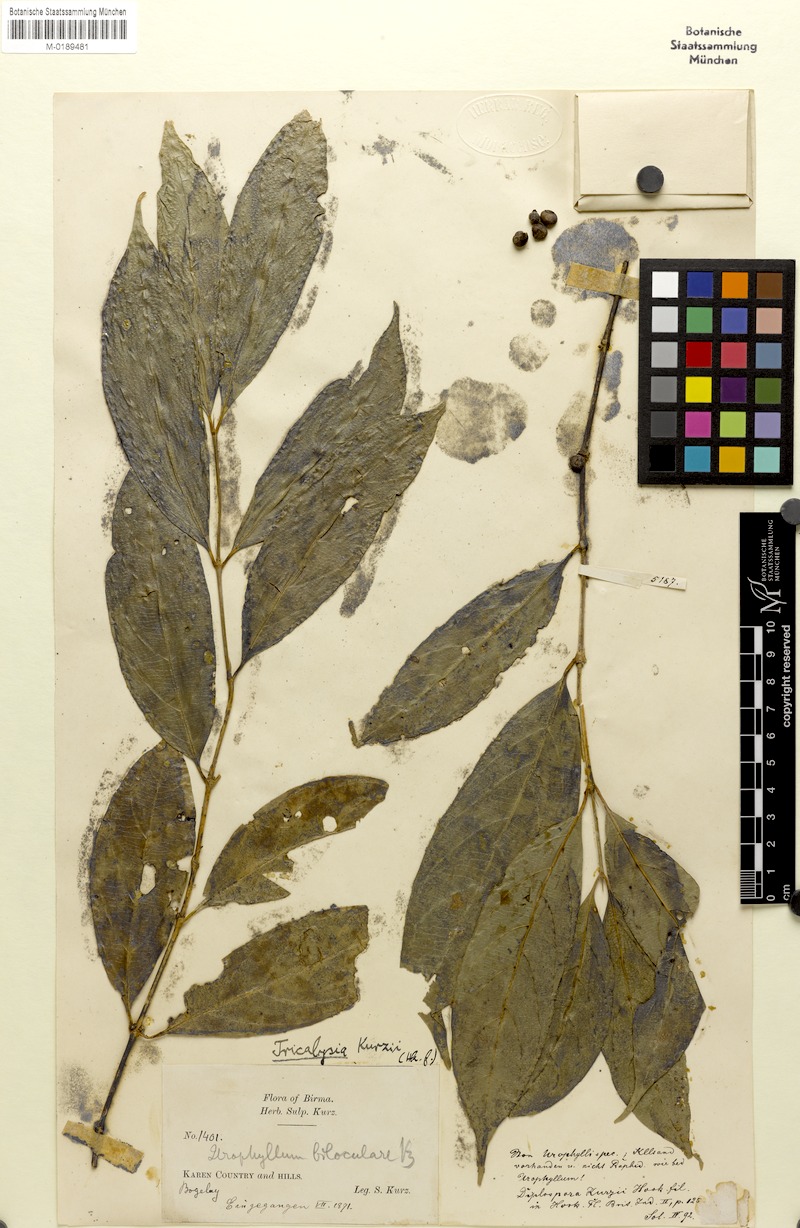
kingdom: Plantae
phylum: Tracheophyta
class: Magnoliopsida
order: Gentianales
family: Rubiaceae
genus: Diplospora
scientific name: Diplospora bilocularis
